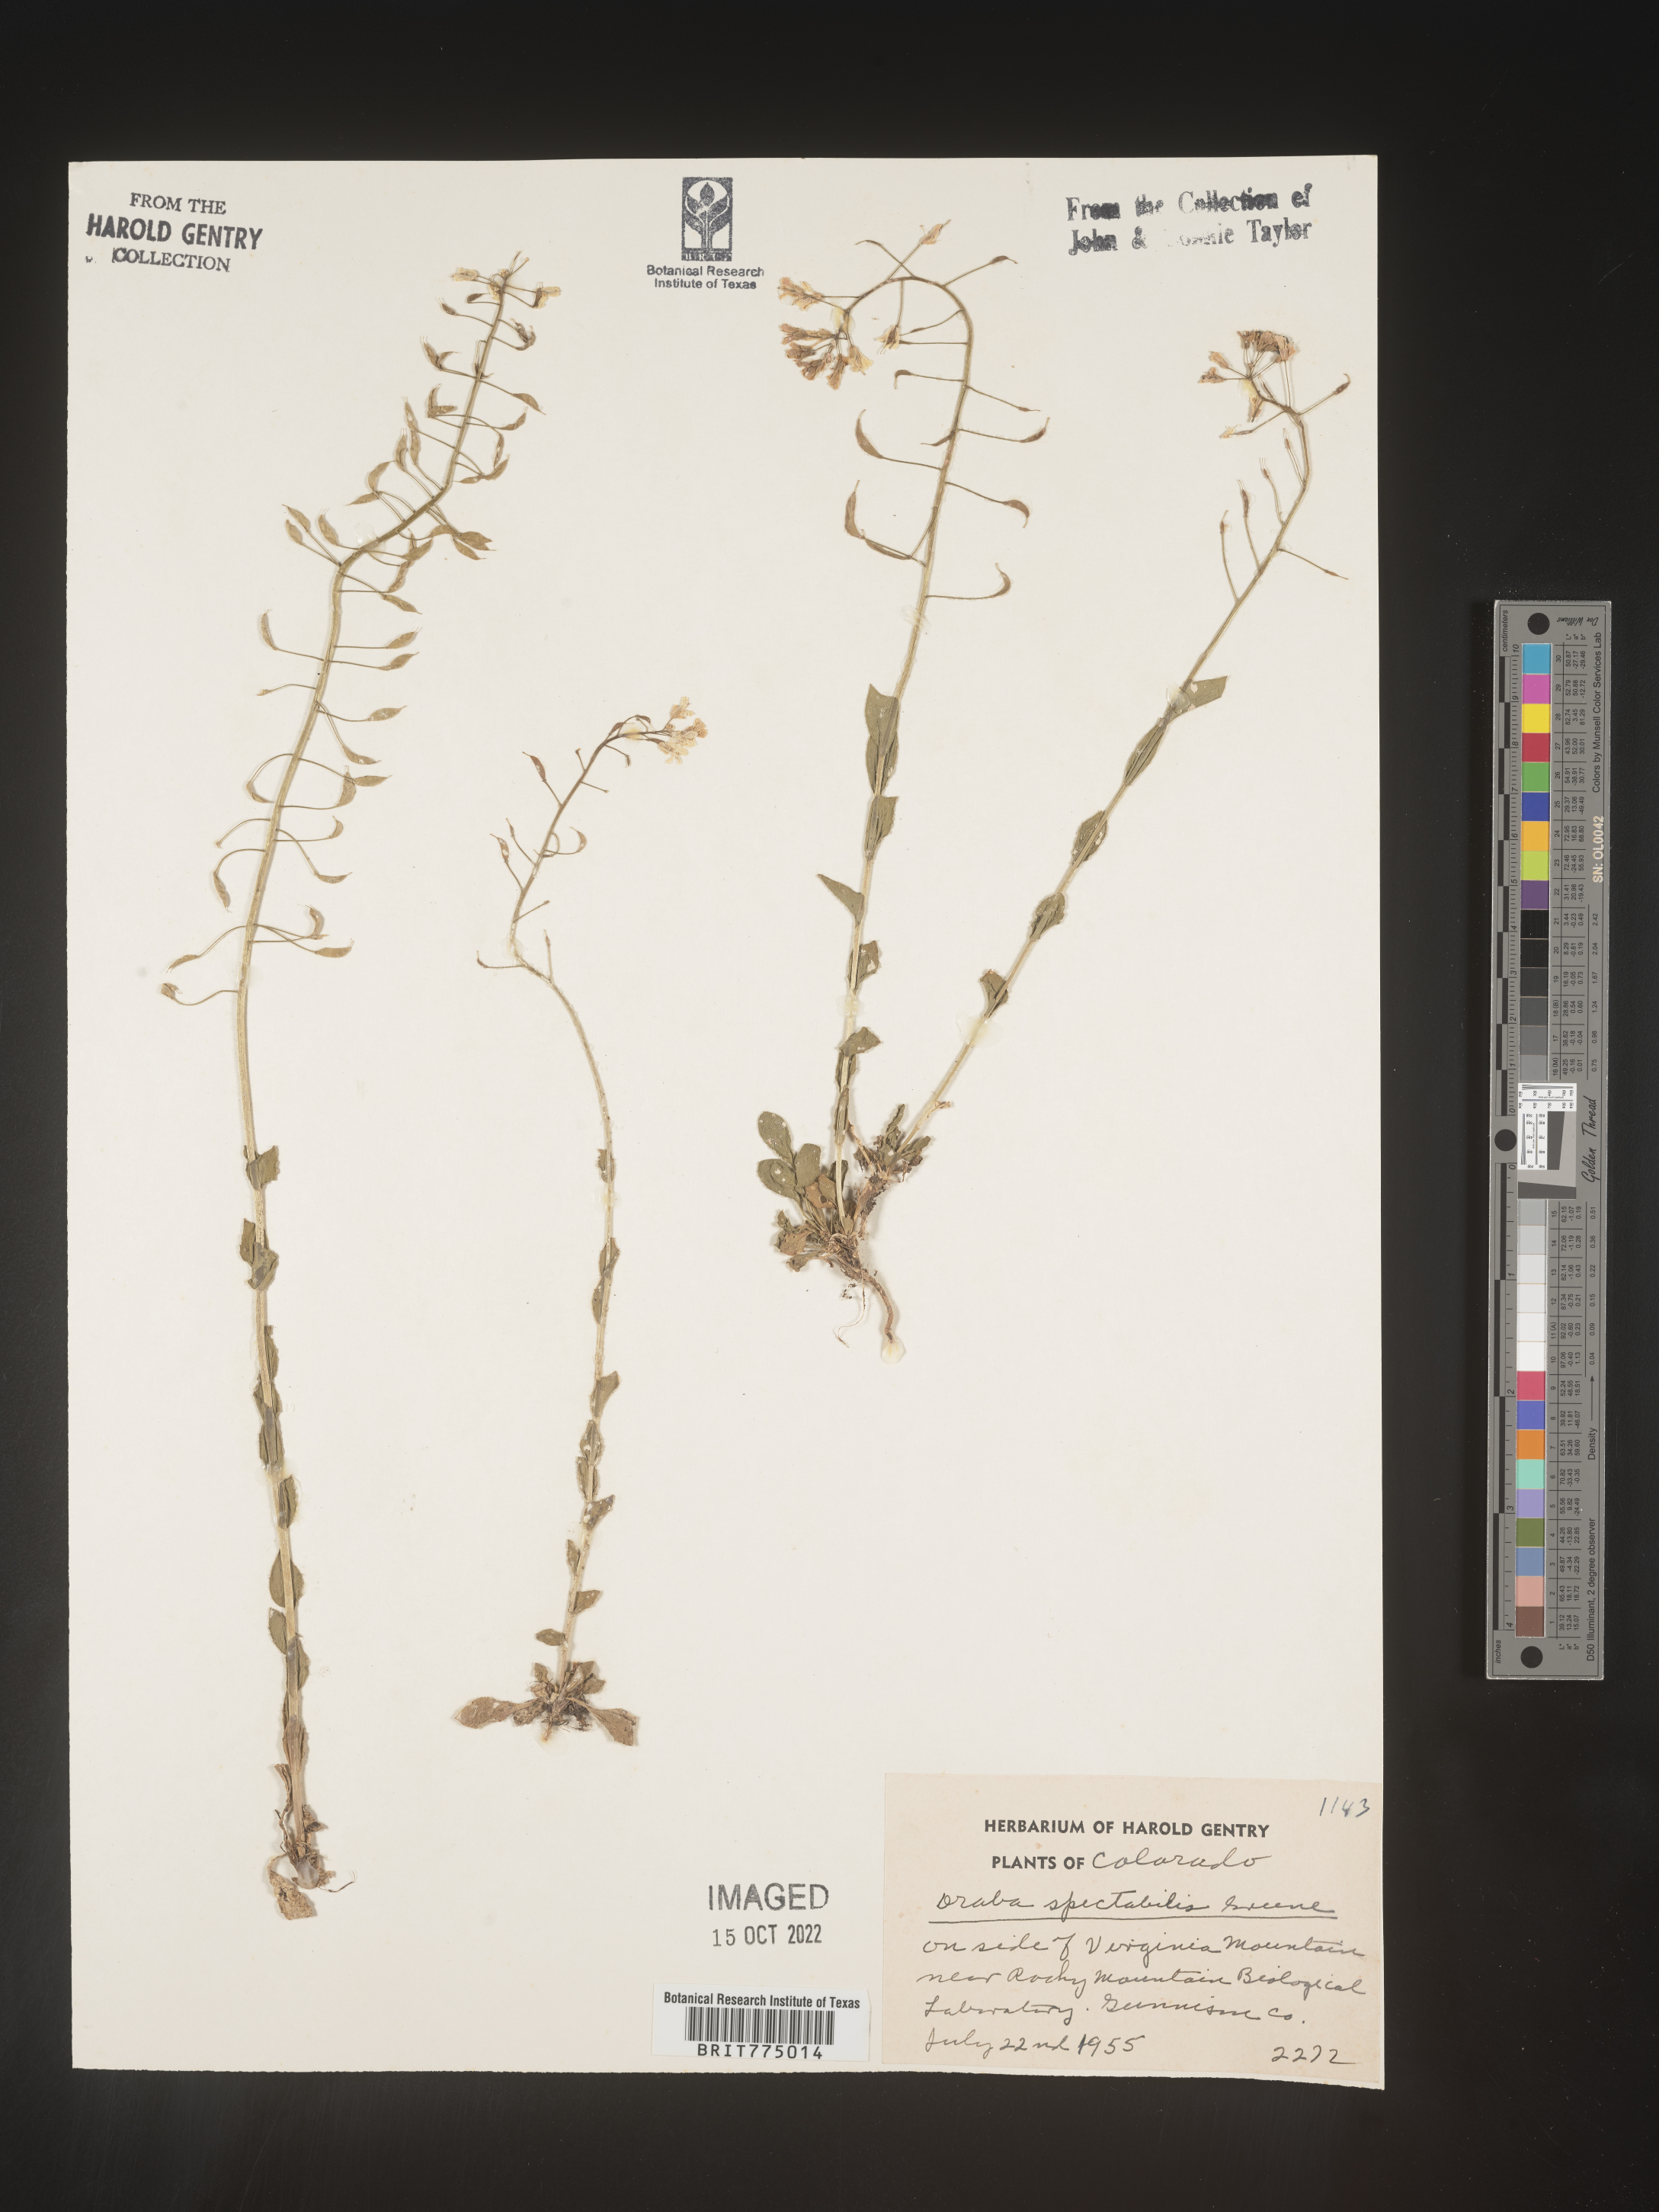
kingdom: Plantae
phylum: Tracheophyta
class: Magnoliopsida
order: Brassicales
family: Brassicaceae
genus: Draba
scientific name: Draba
